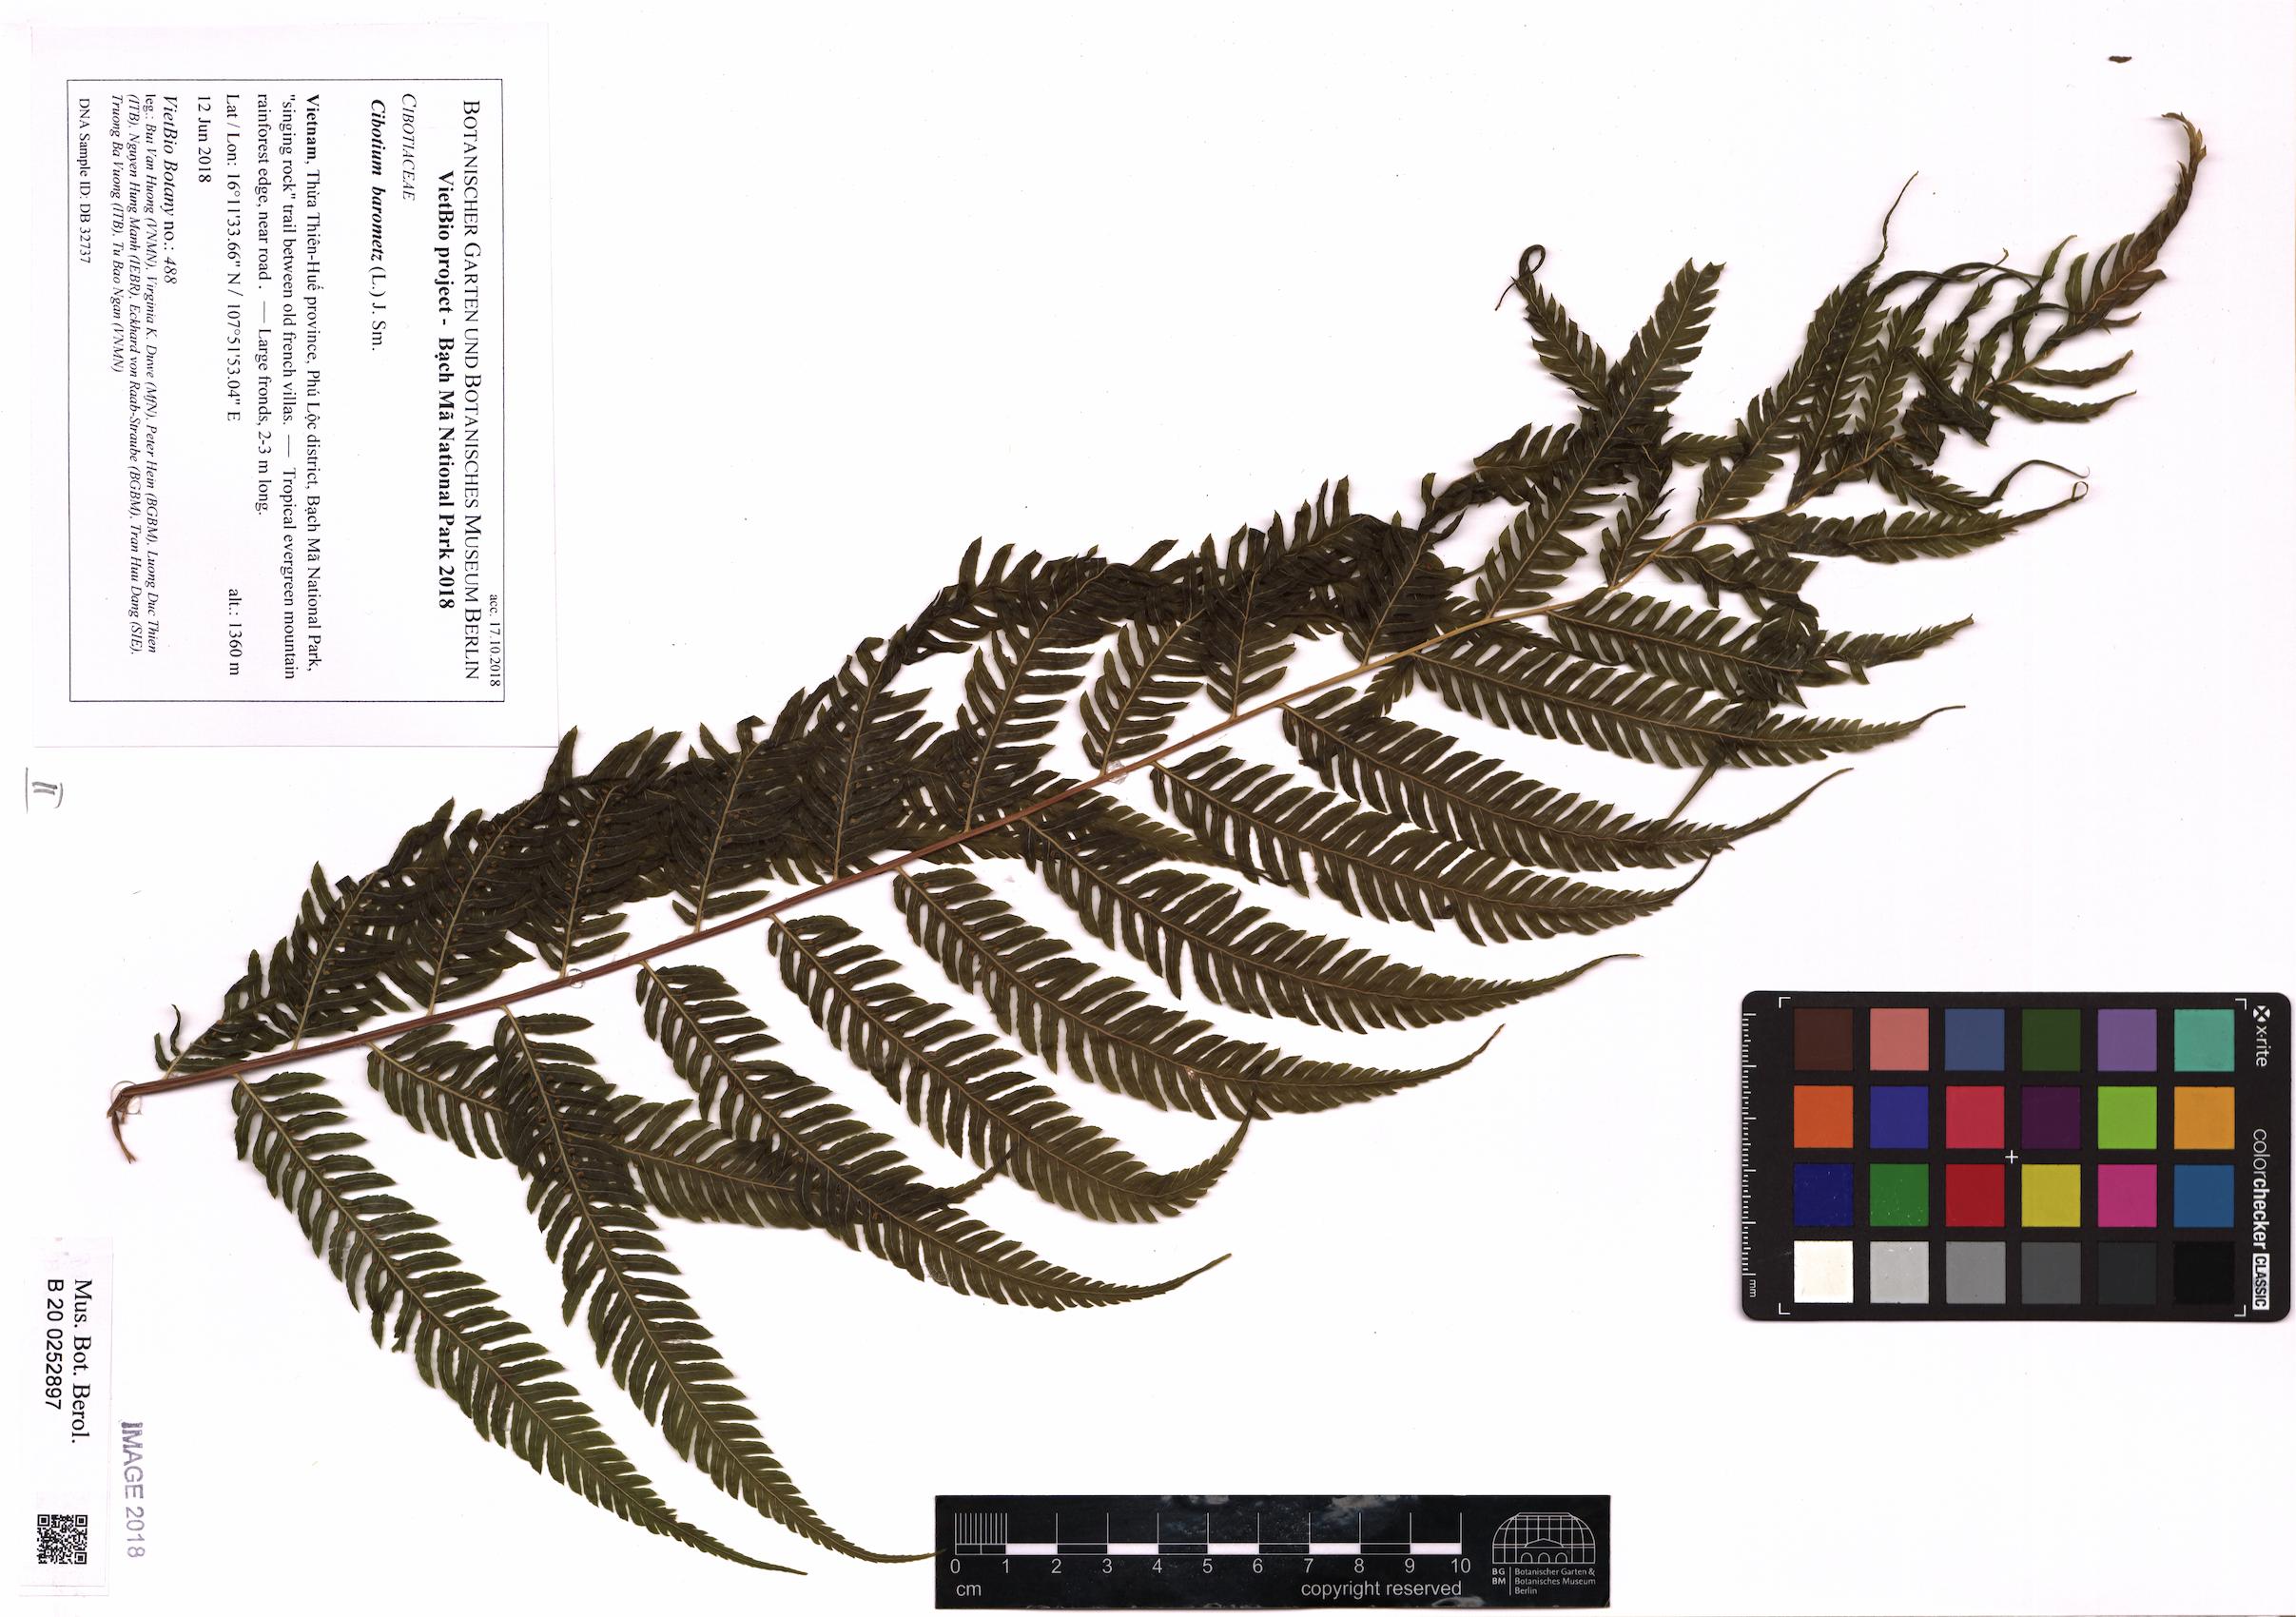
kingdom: Plantae
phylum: Tracheophyta
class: Polypodiopsida
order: Cyatheales
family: Cibotiaceae
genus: Cibotium
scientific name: Cibotium barometz
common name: Scythian-lamb
